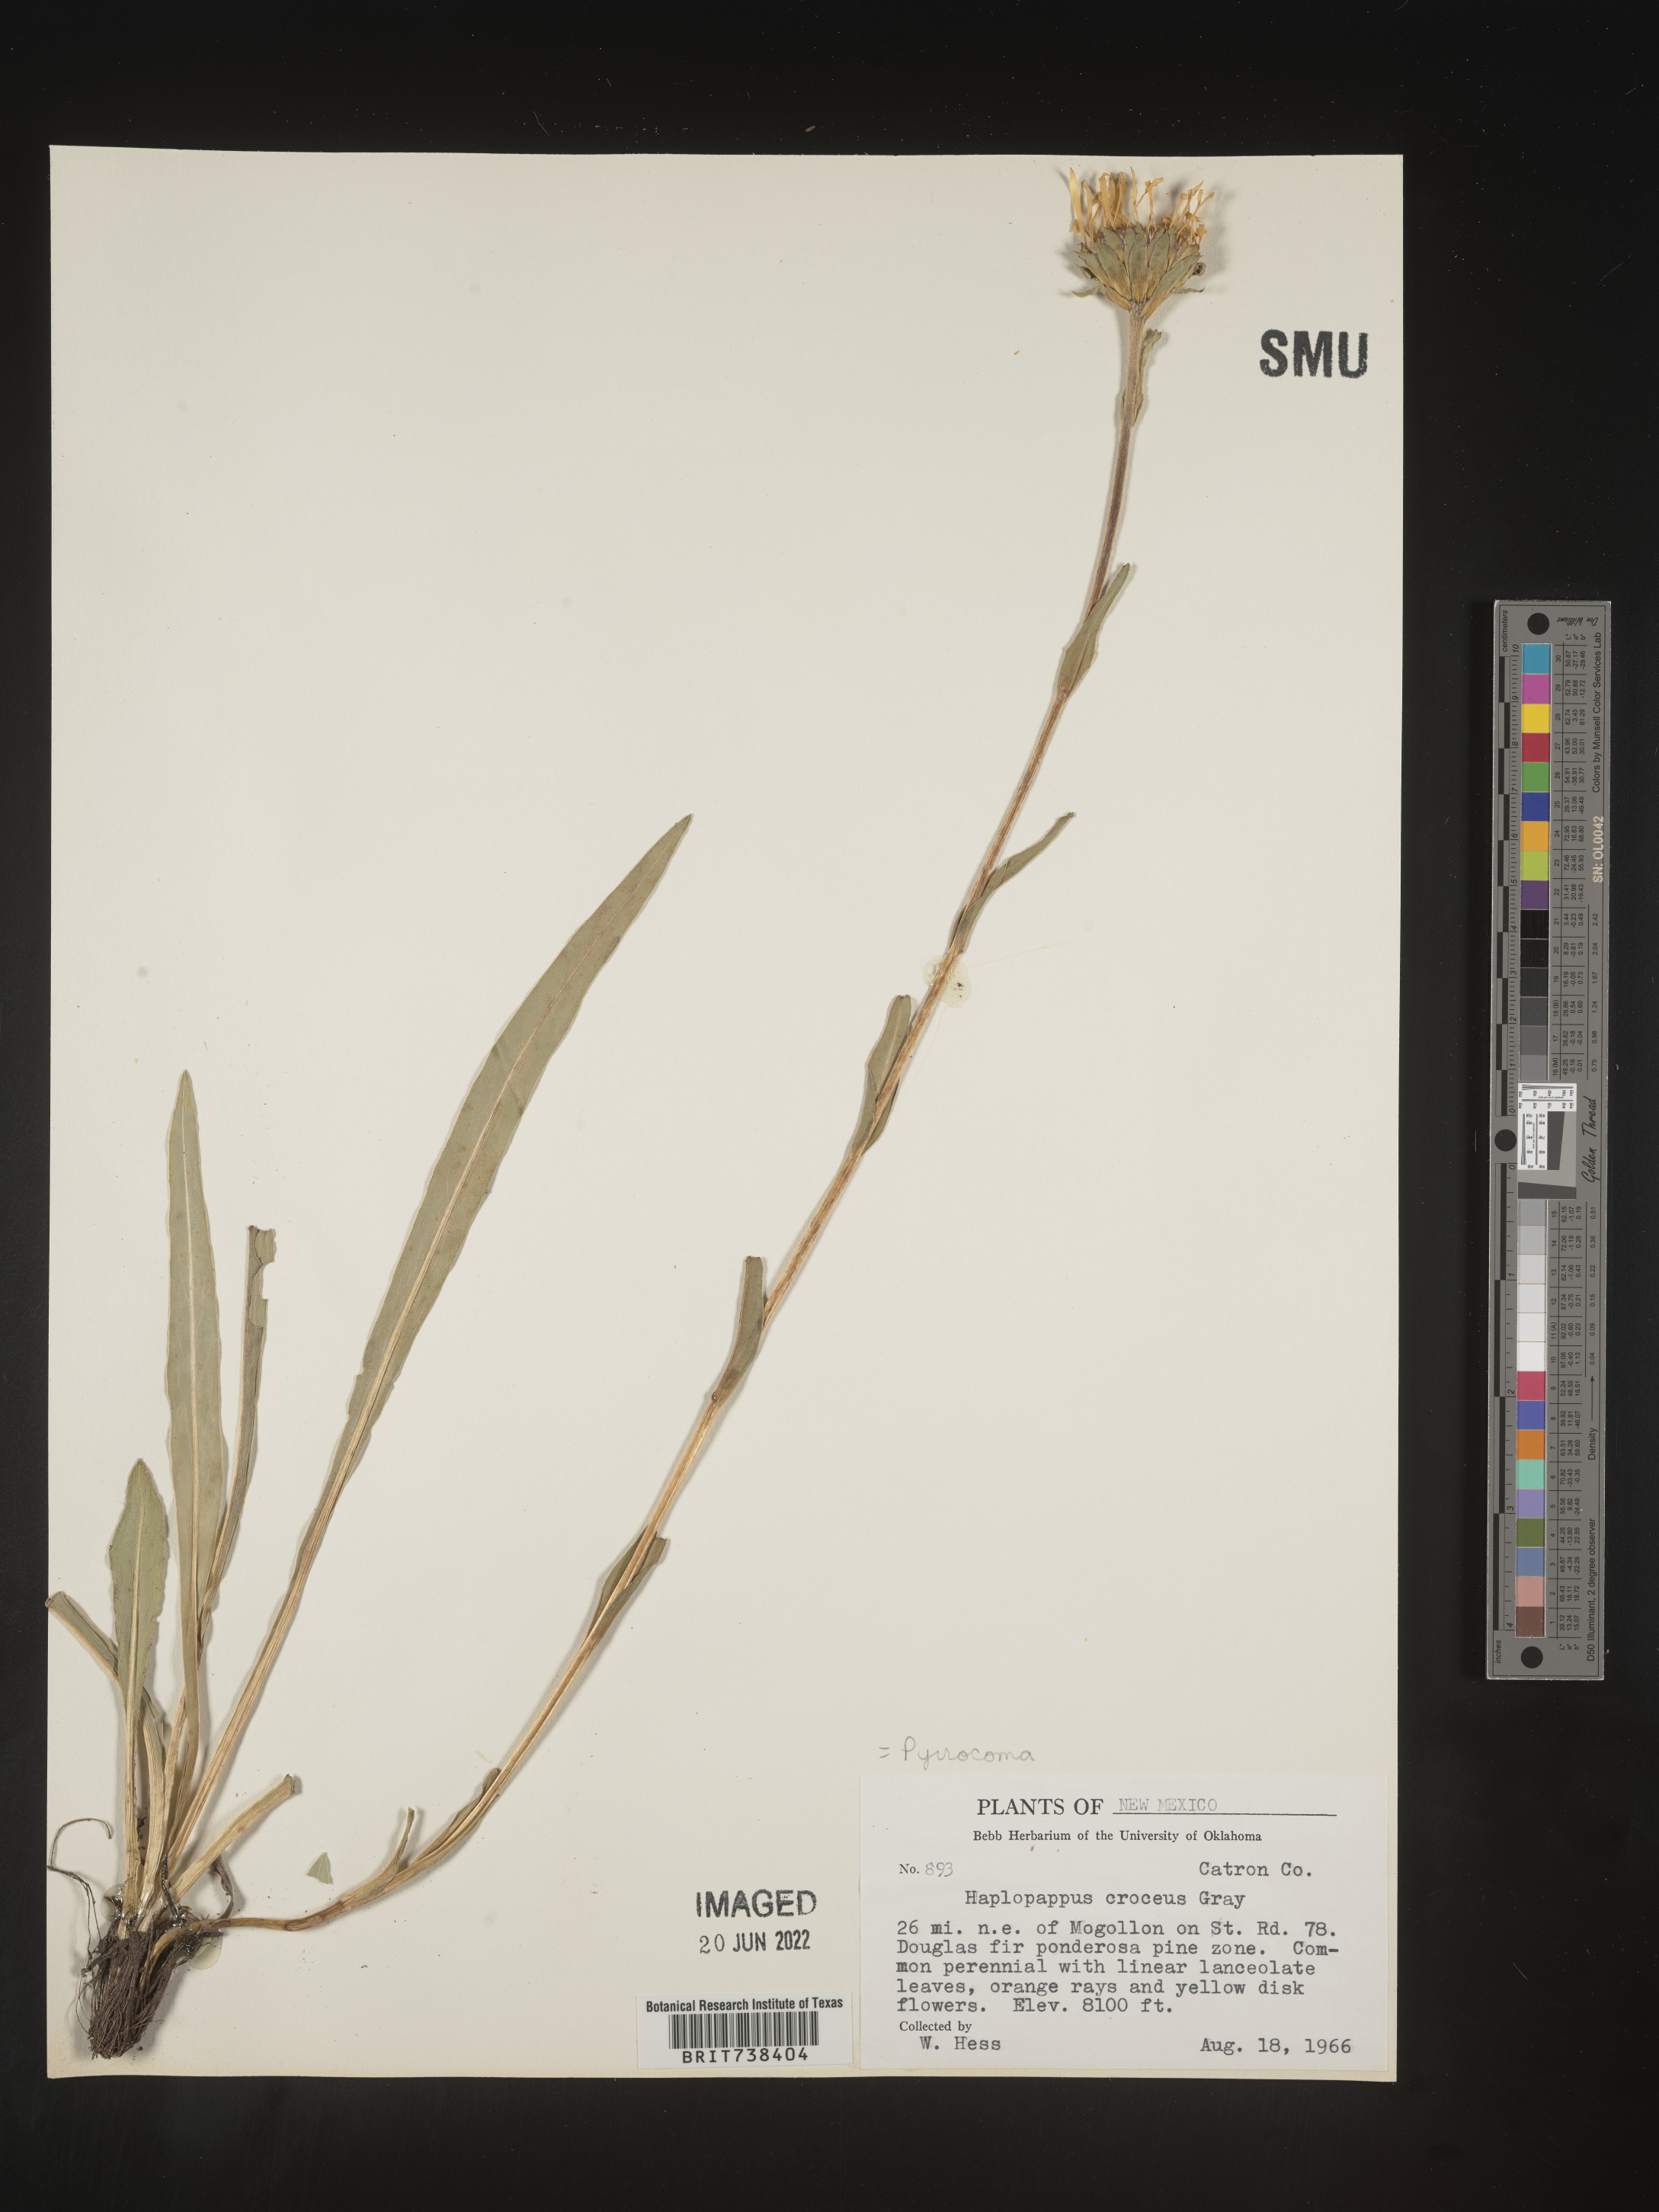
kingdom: Plantae
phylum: Tracheophyta
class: Magnoliopsida
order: Asterales
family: Asteraceae
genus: Pyrrocoma
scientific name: Pyrrocoma crocea
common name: Curly-head goldenweed
